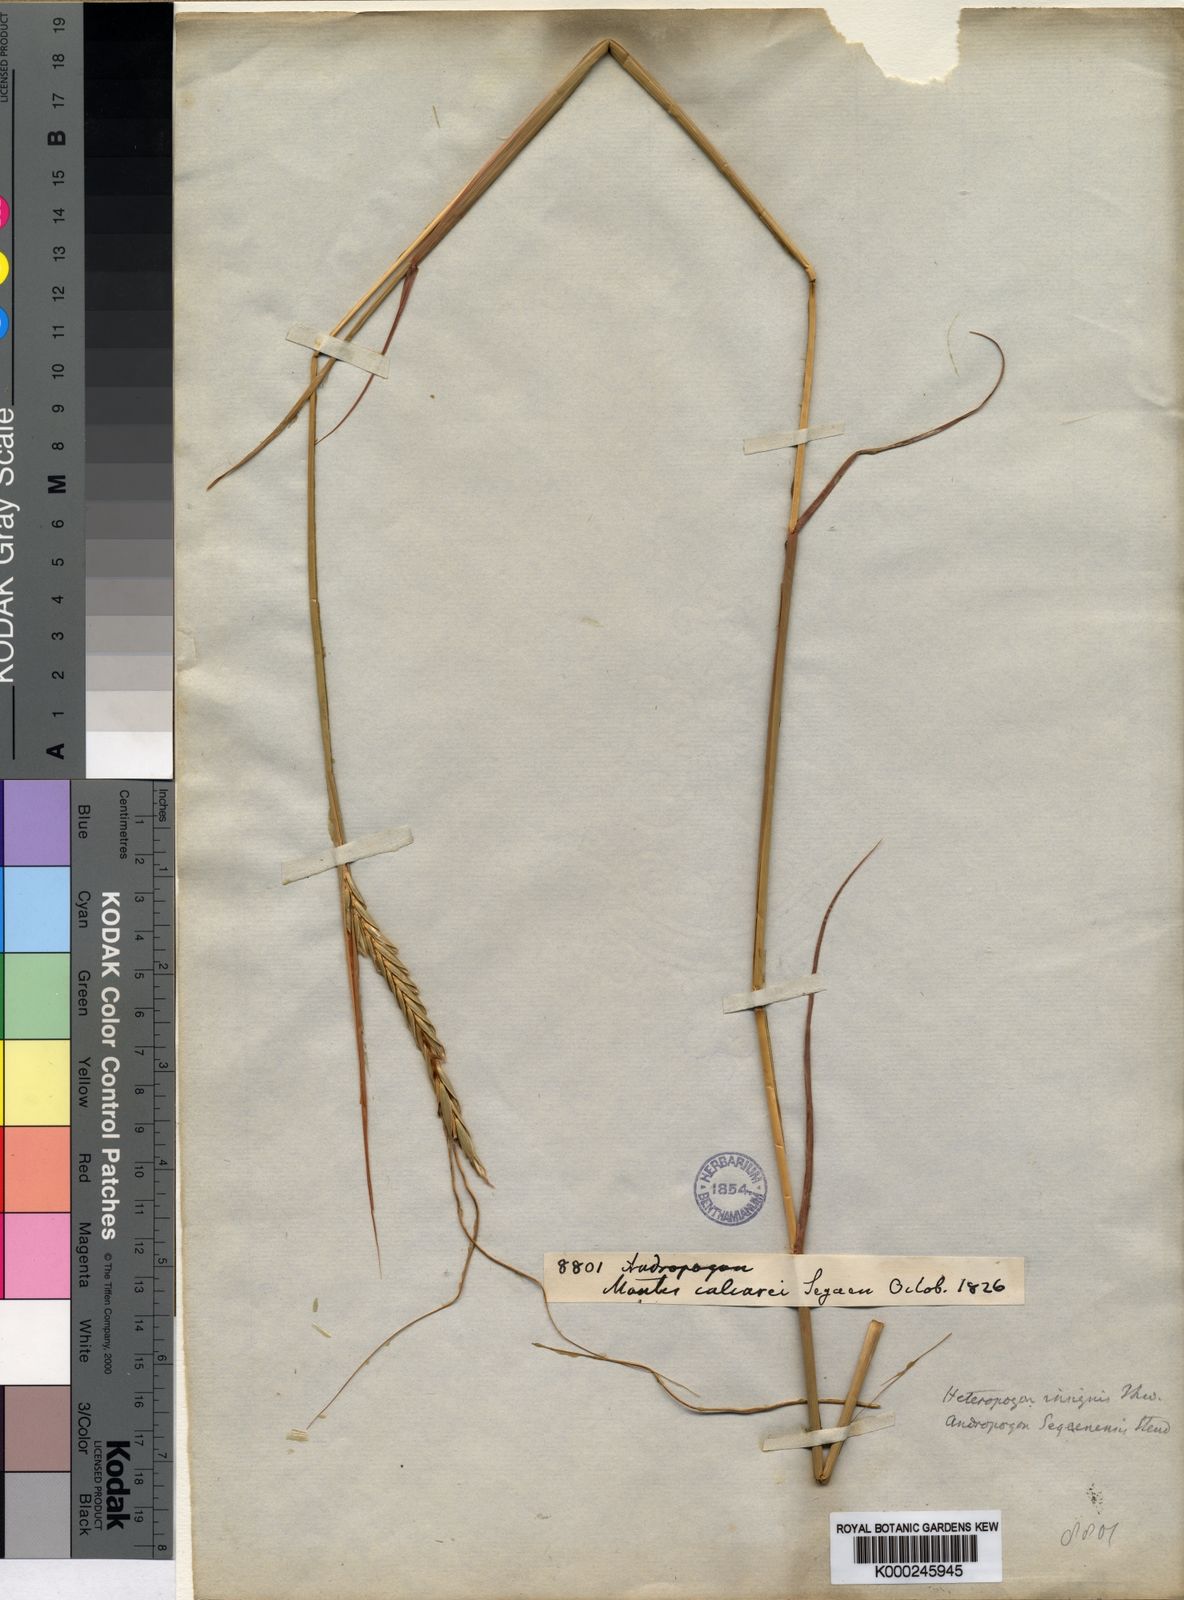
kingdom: Plantae
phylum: Tracheophyta
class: Liliopsida
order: Poales
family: Poaceae
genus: Heteropogon
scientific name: Heteropogon triticeus
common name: Sugar grass
